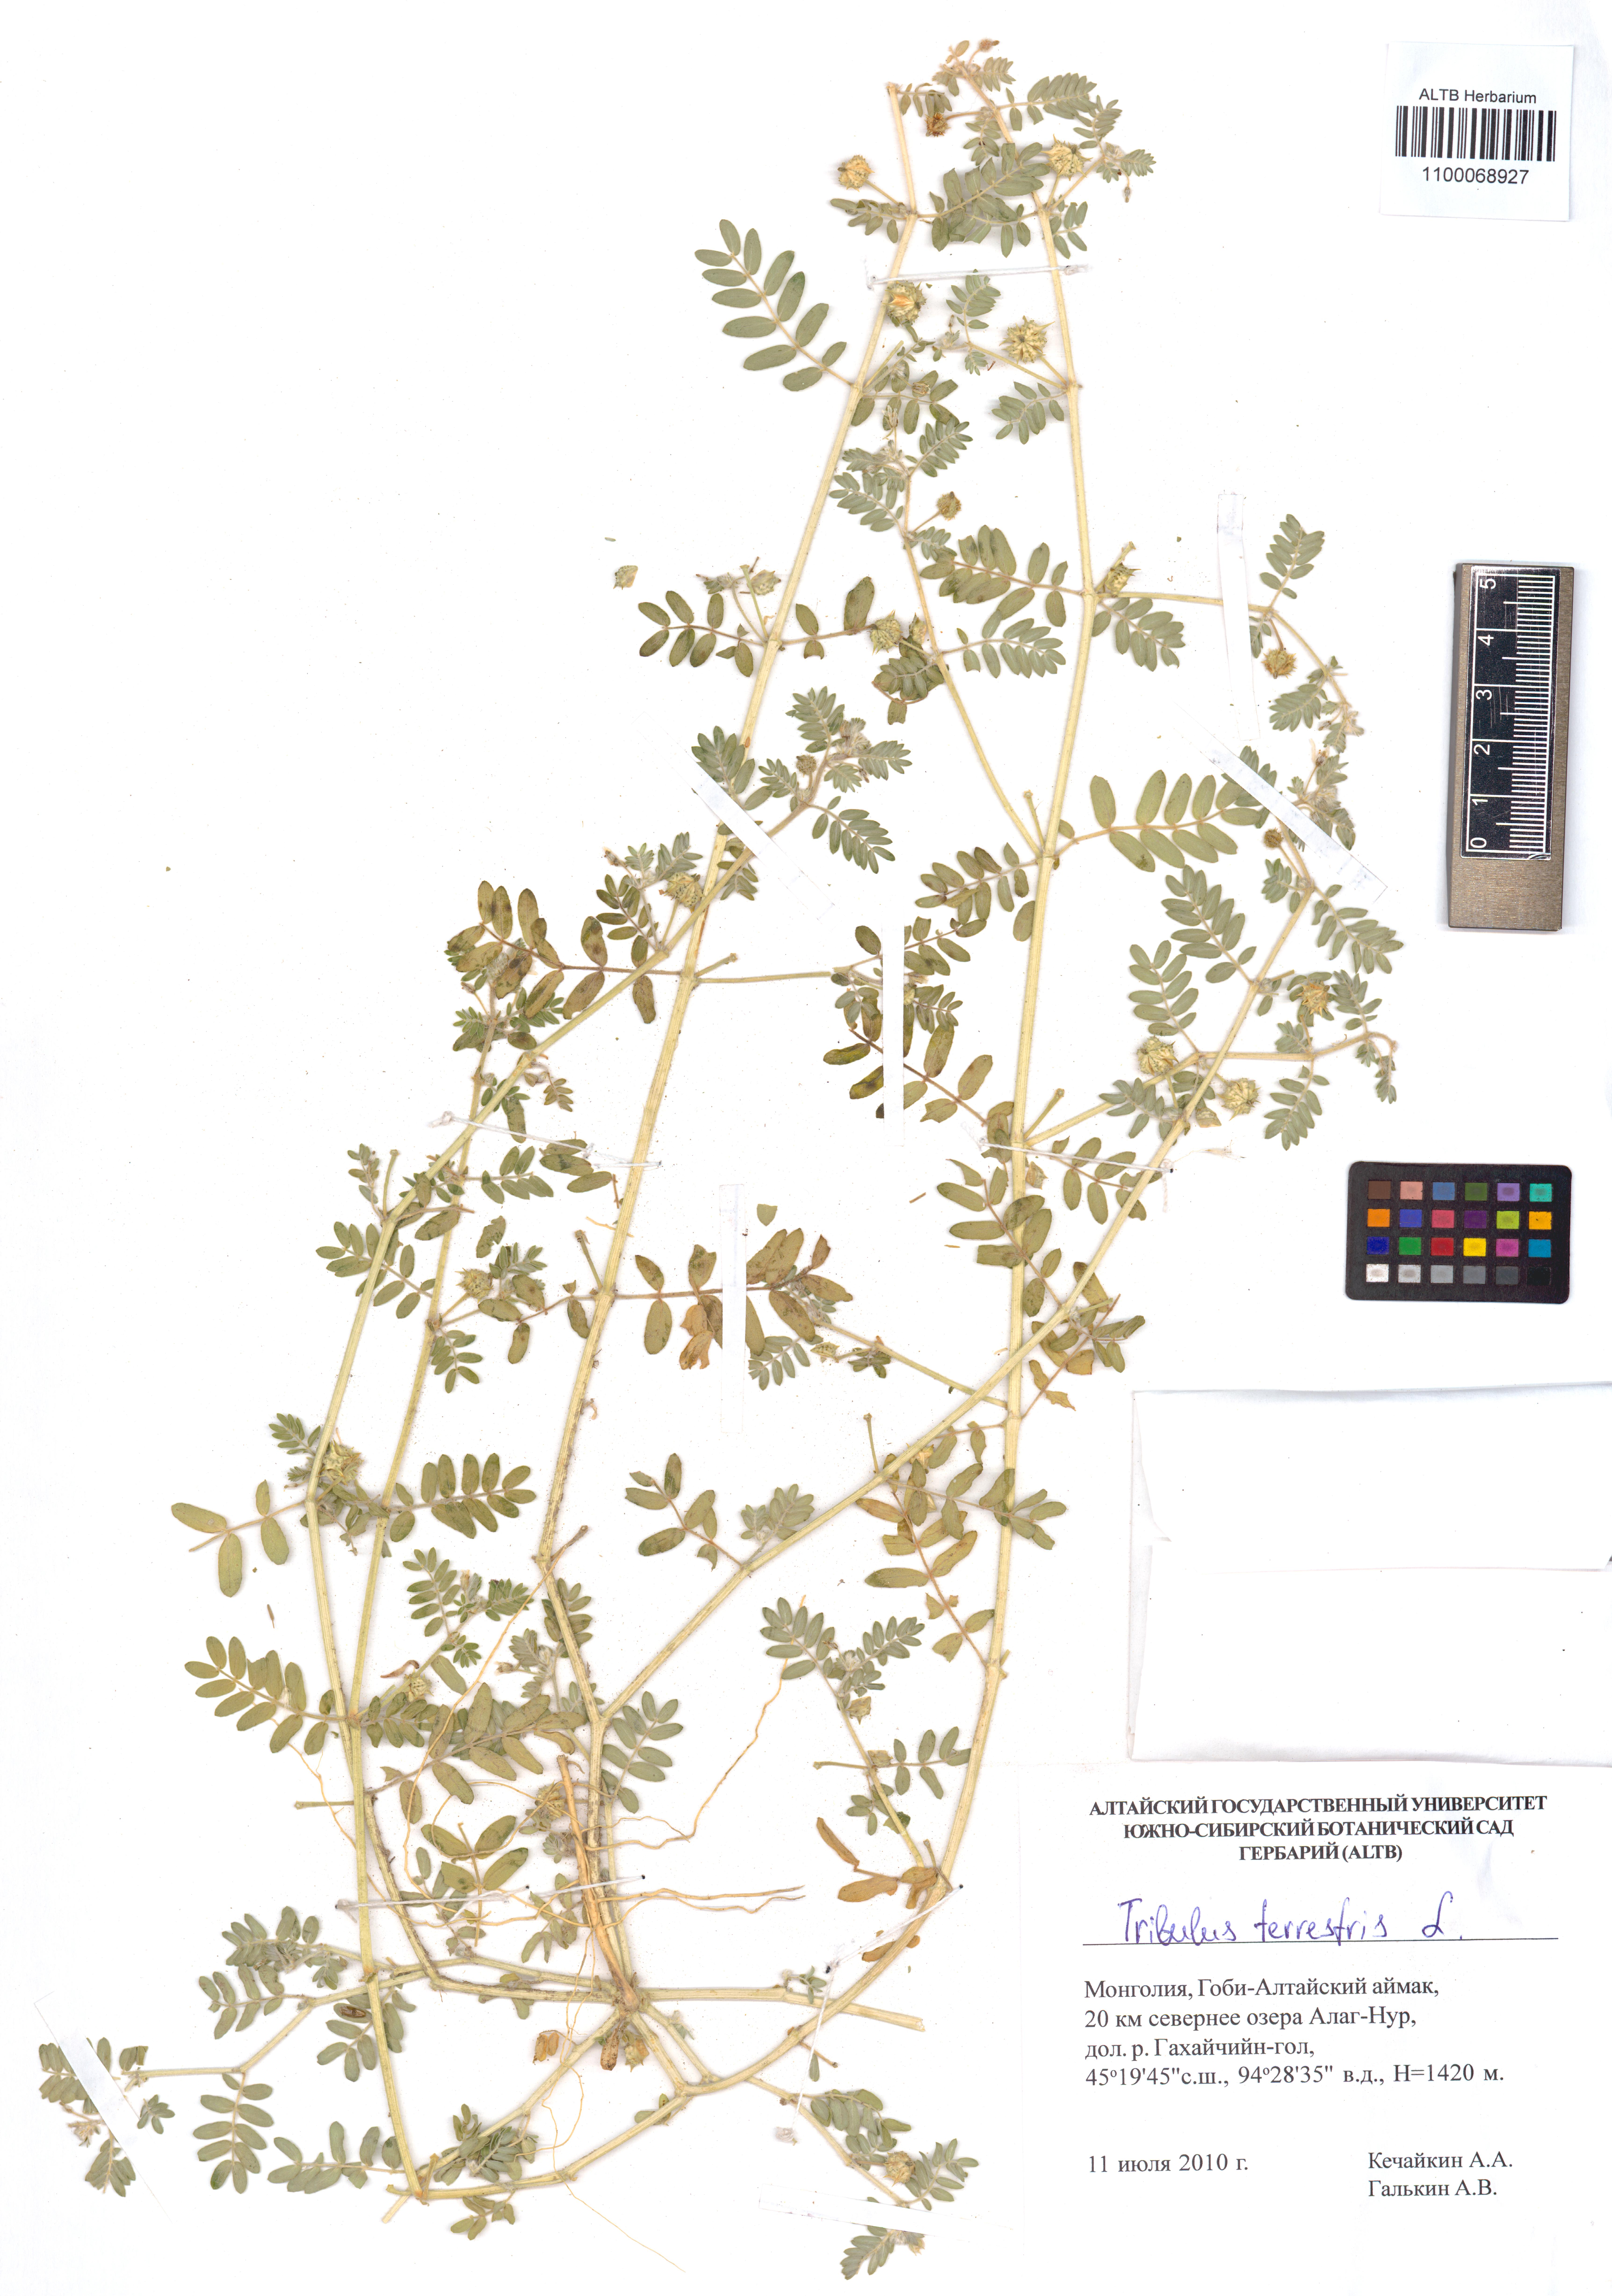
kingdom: Plantae
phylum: Tracheophyta
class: Magnoliopsida
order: Zygophyllales
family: Zygophyllaceae
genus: Tribulus
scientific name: Tribulus terrestris
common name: Puncturevine
